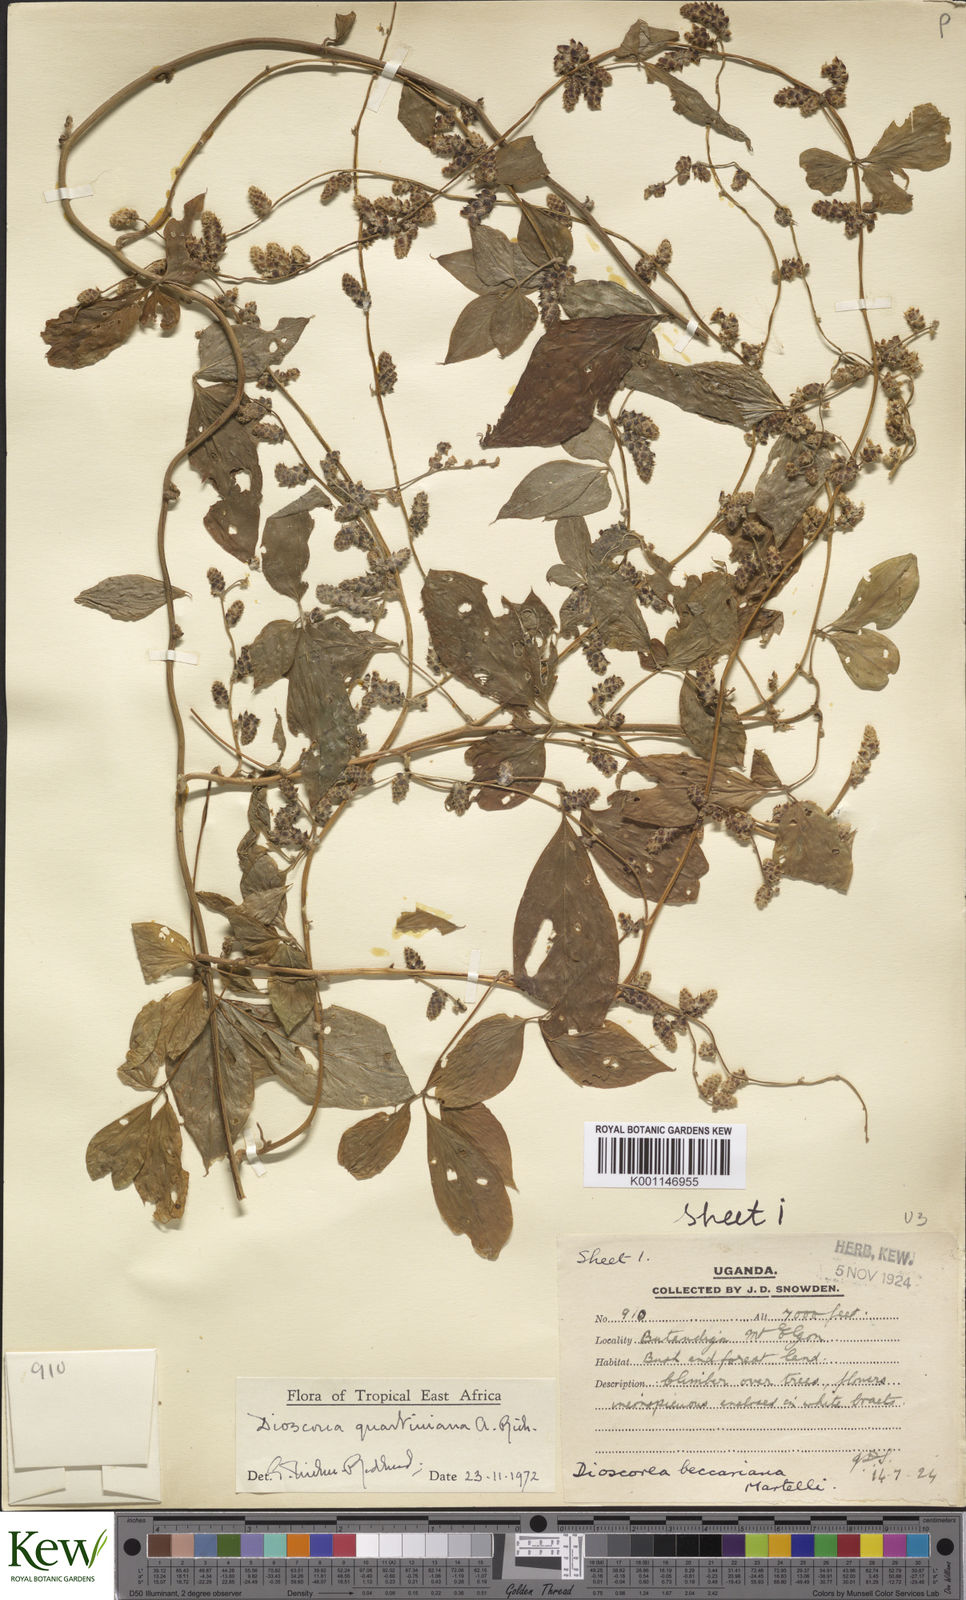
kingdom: Plantae
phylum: Tracheophyta
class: Liliopsida
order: Dioscoreales
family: Dioscoreaceae
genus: Dioscorea
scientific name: Dioscorea quartiniana
